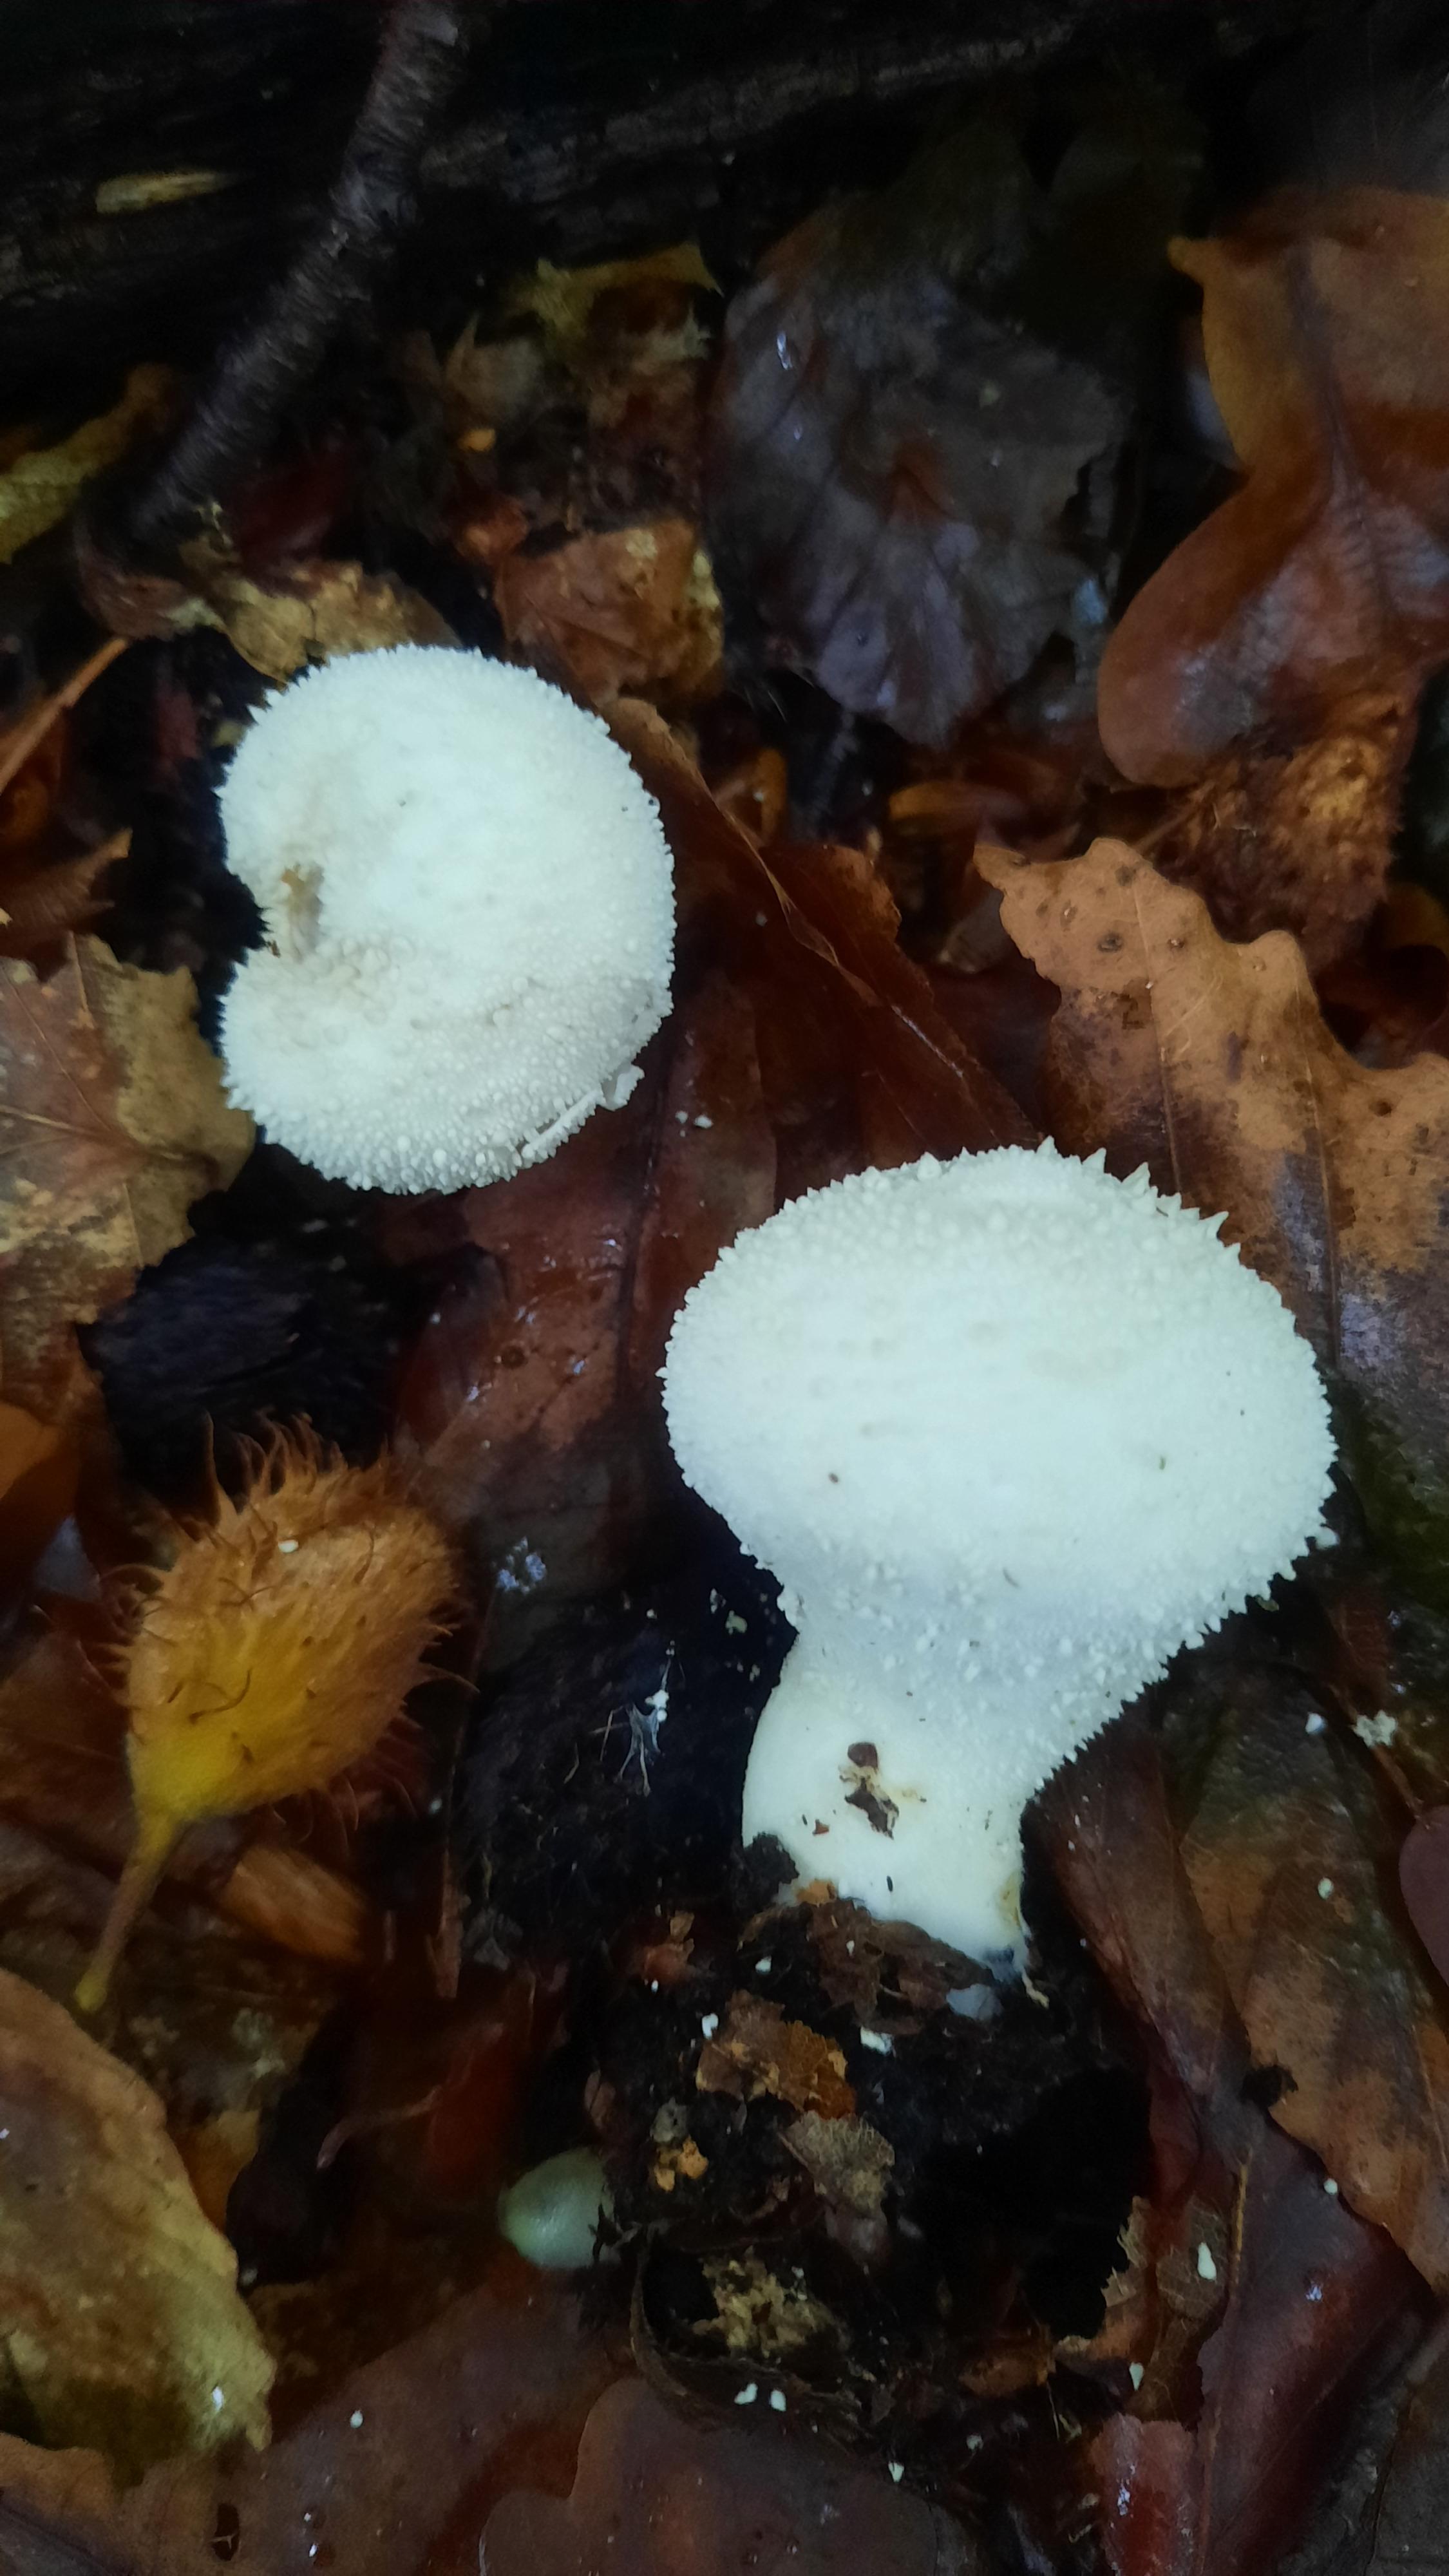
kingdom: Fungi
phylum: Basidiomycota
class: Agaricomycetes
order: Agaricales
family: Lycoperdaceae
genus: Lycoperdon
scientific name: Lycoperdon perlatum
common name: krystal-støvbold
